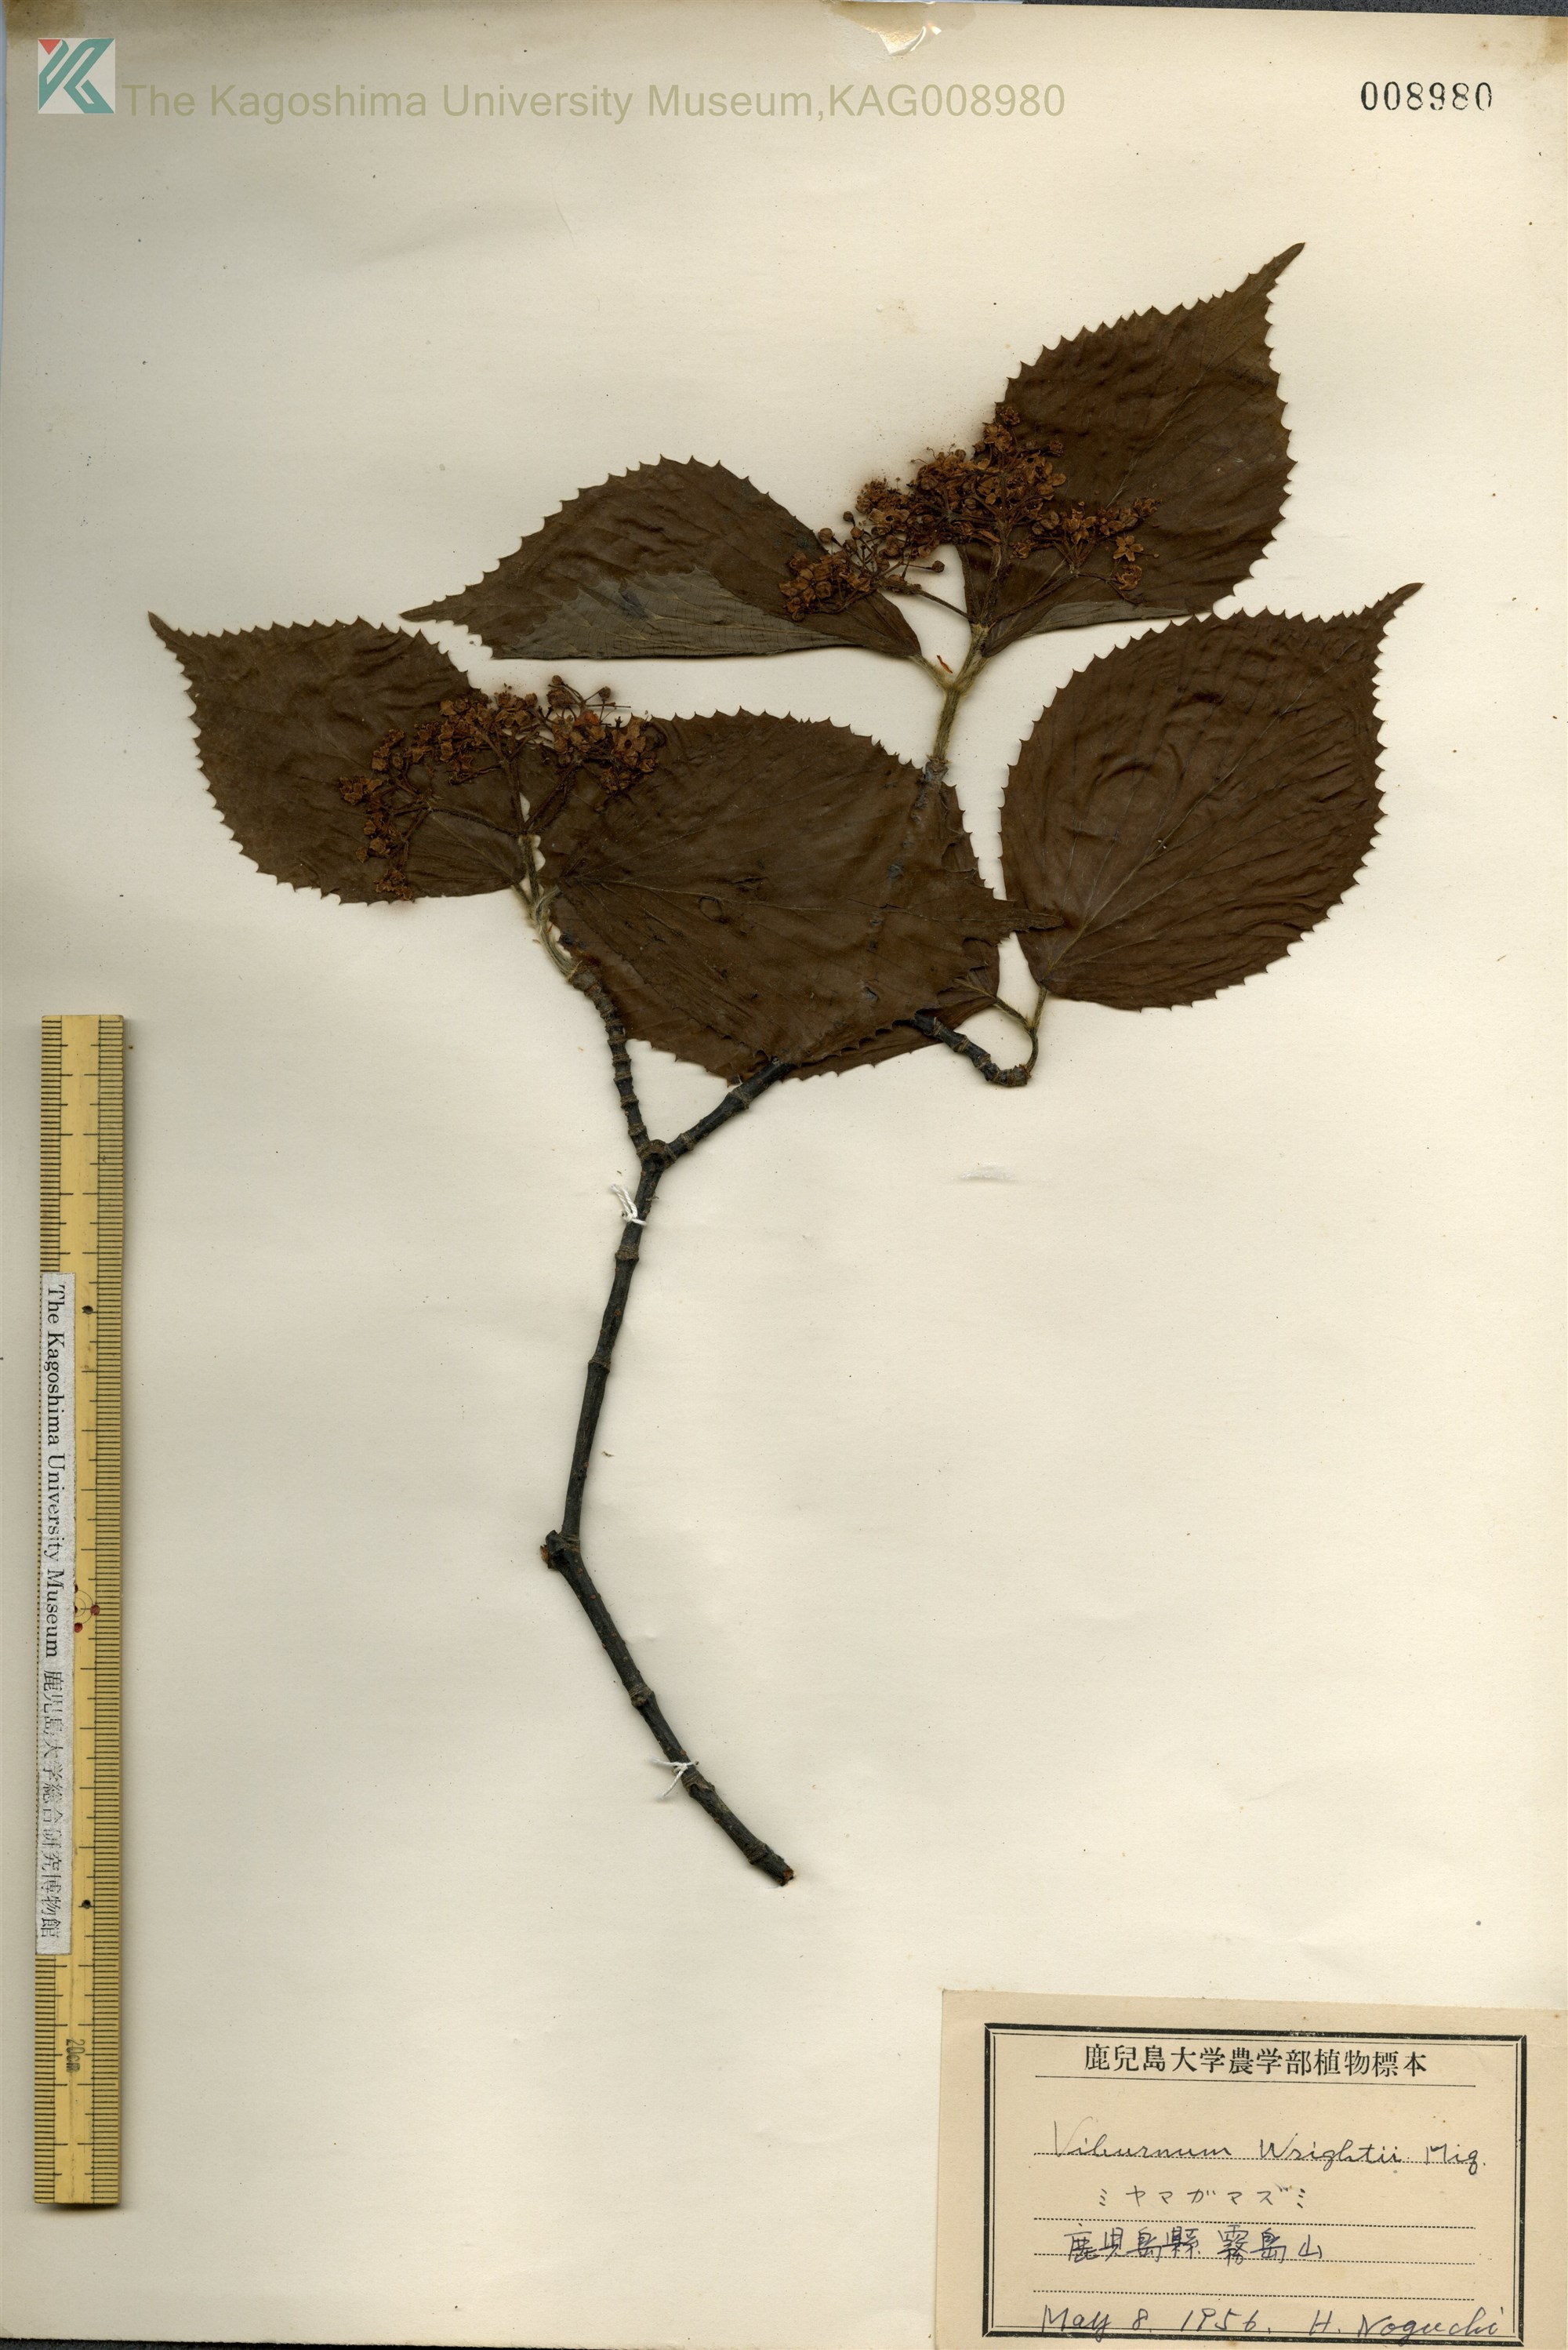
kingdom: Plantae
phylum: Tracheophyta
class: Magnoliopsida
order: Dipsacales
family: Viburnaceae
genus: Viburnum
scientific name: Viburnum wrightii
